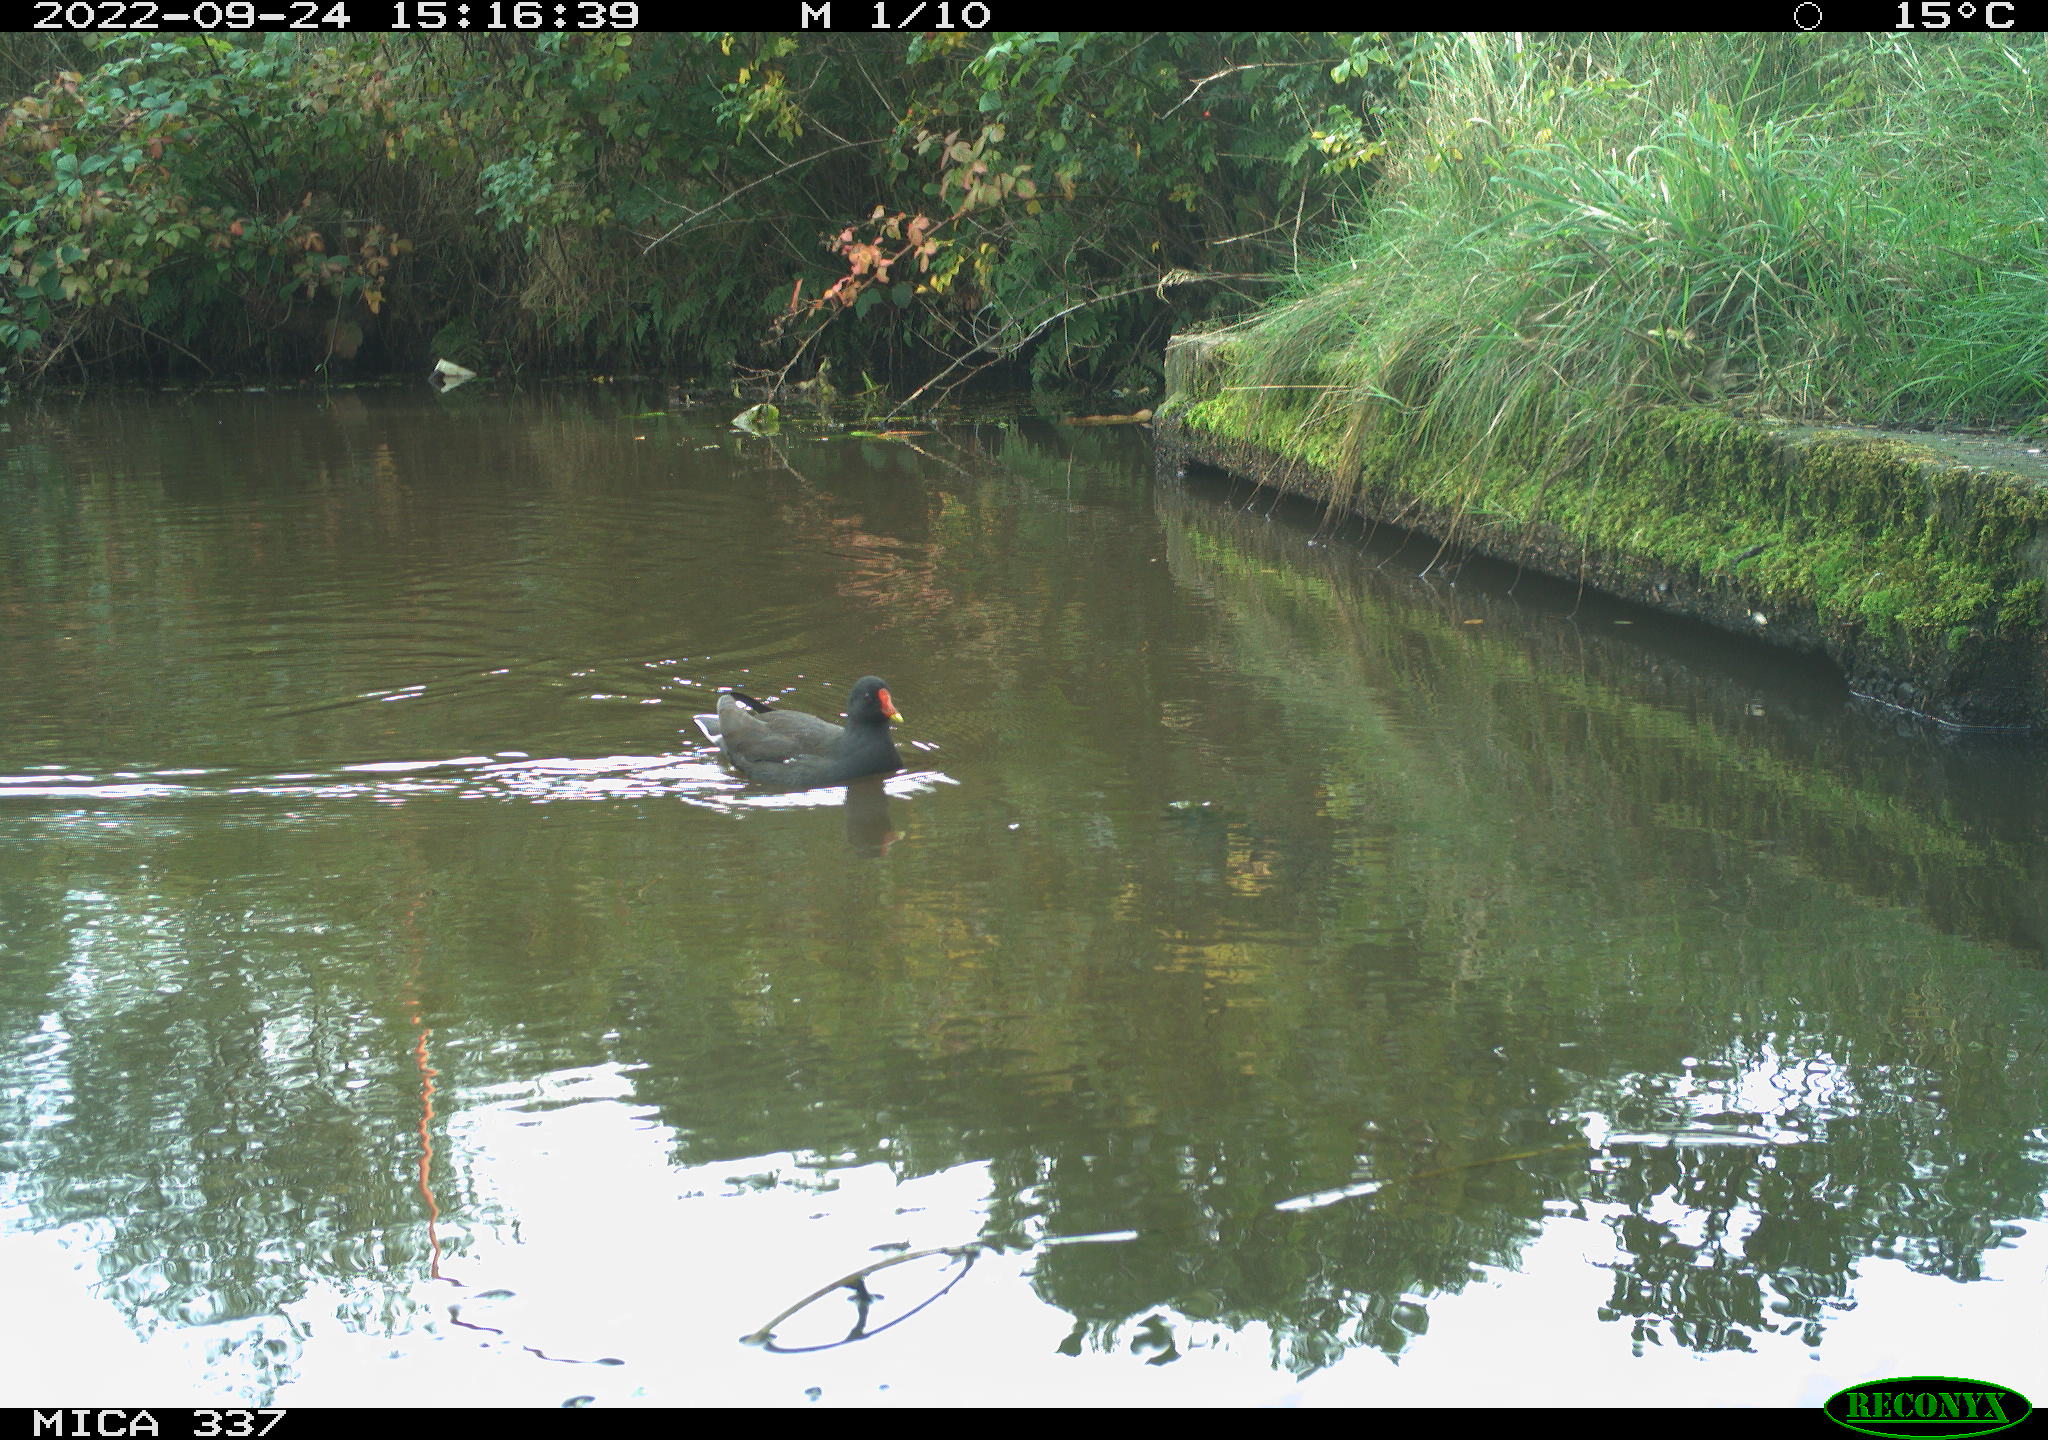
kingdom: Animalia
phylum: Chordata
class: Aves
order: Gruiformes
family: Rallidae
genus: Gallinula
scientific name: Gallinula chloropus
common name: Common moorhen
